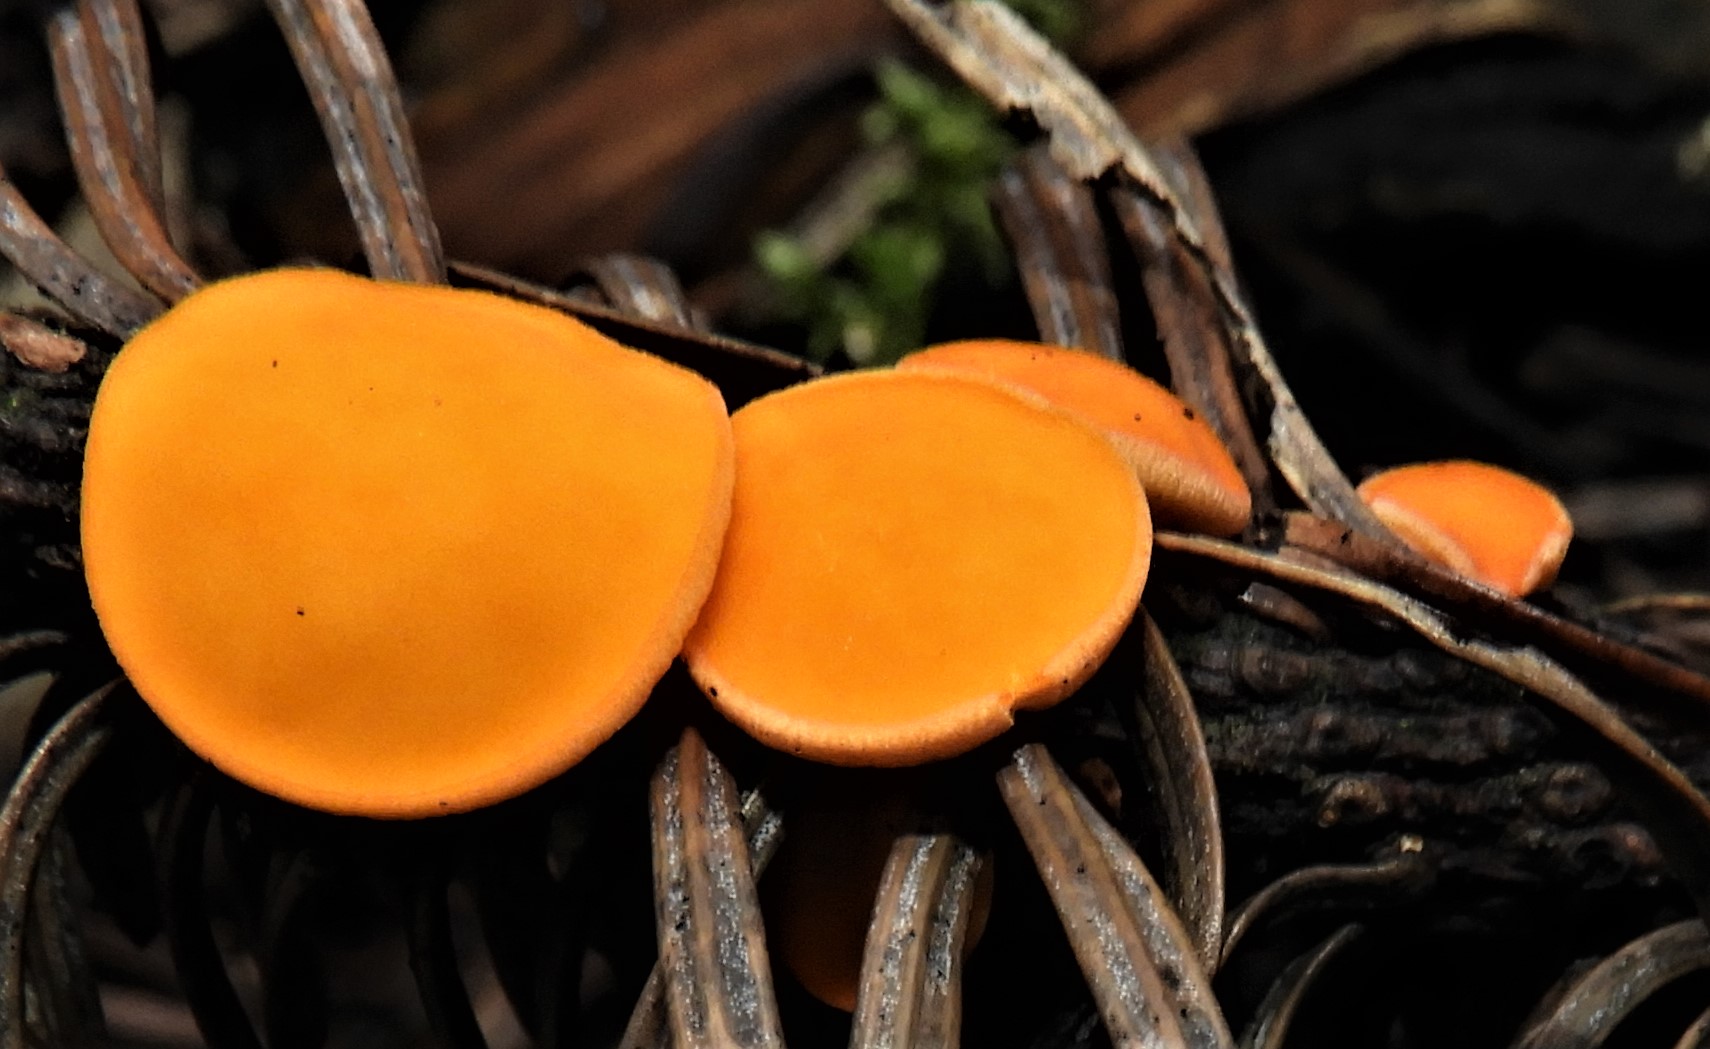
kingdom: Fungi
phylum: Ascomycota
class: Pezizomycetes
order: Pezizales
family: Sarcoscyphaceae
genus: Pithya
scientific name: Pithya vulgaris
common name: stor dukatbæger
